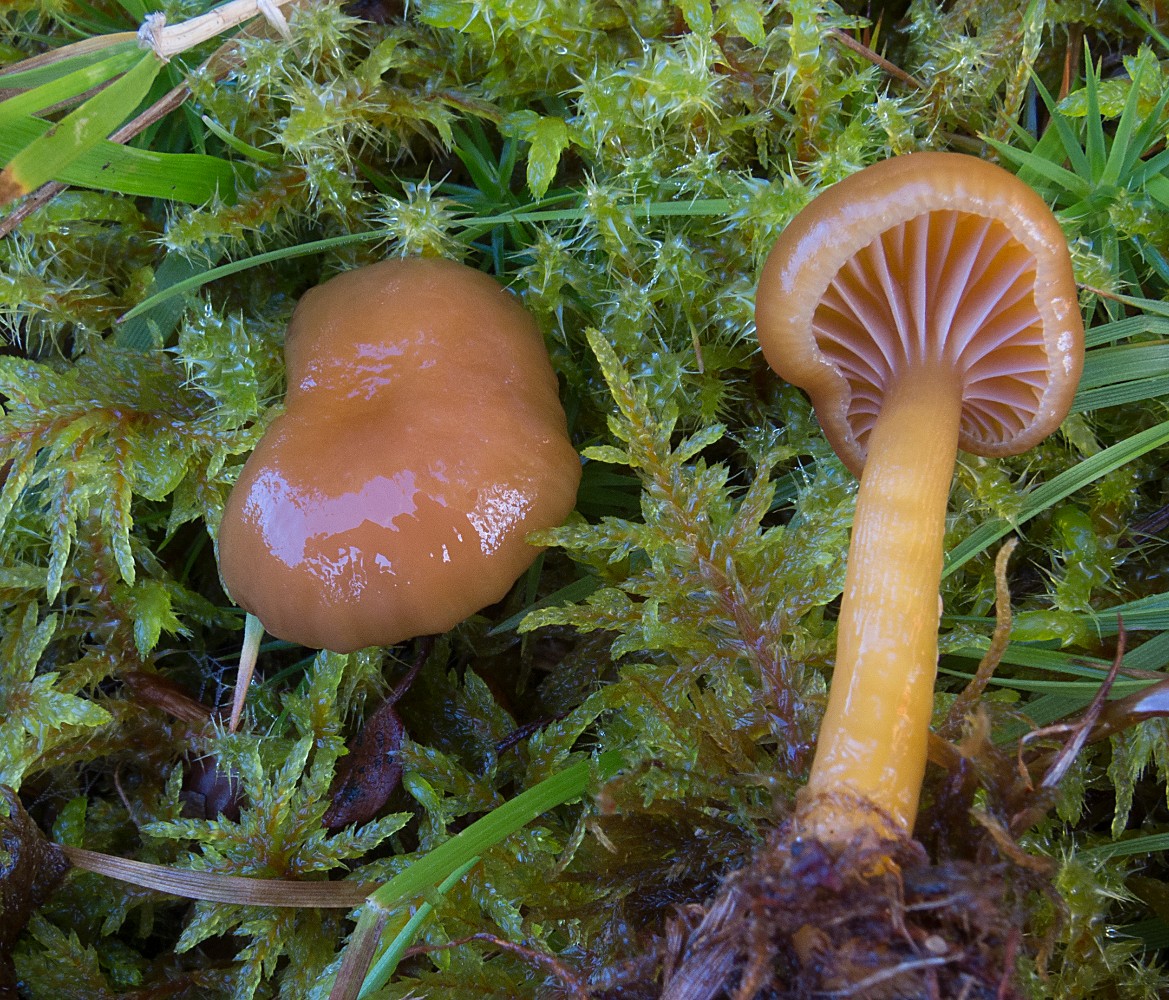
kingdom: Fungi
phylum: Basidiomycota
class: Agaricomycetes
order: Agaricales
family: Hygrophoraceae
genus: Gliophorus
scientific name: Gliophorus laetus
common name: brusk-vokshat
